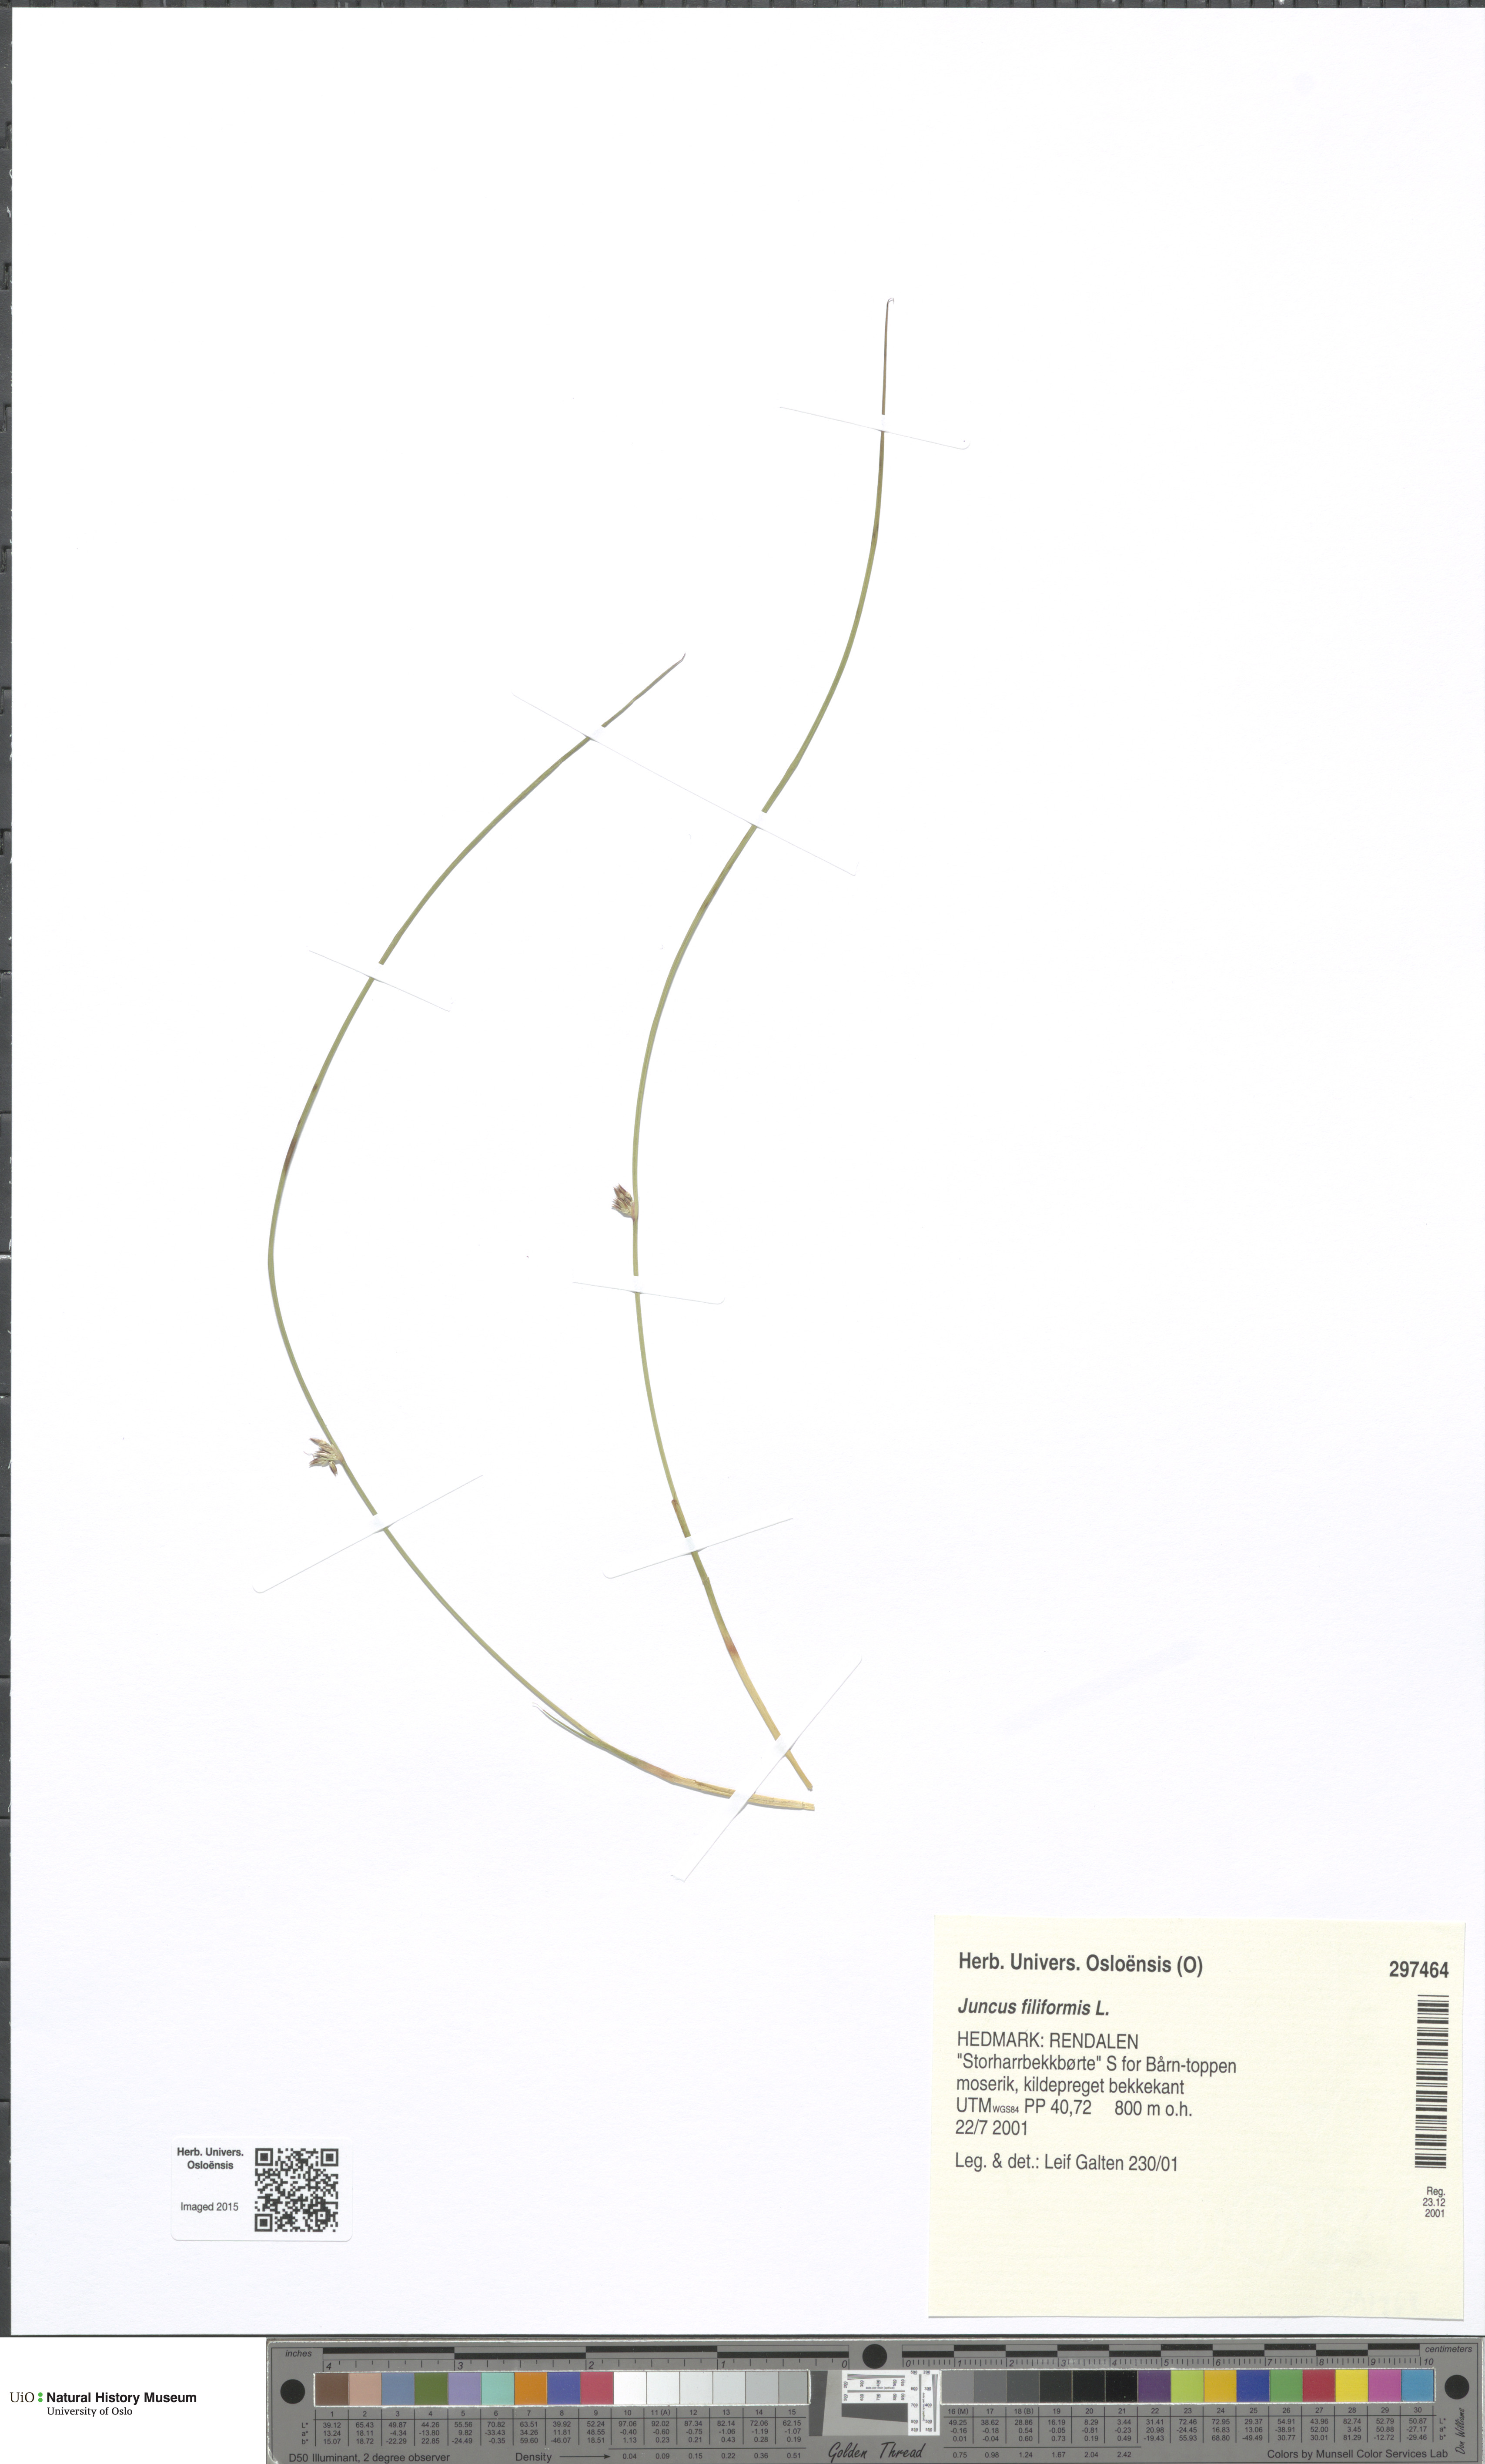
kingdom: Plantae
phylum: Tracheophyta
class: Liliopsida
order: Poales
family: Juncaceae
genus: Juncus
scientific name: Juncus filiformis
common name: Thread rush
